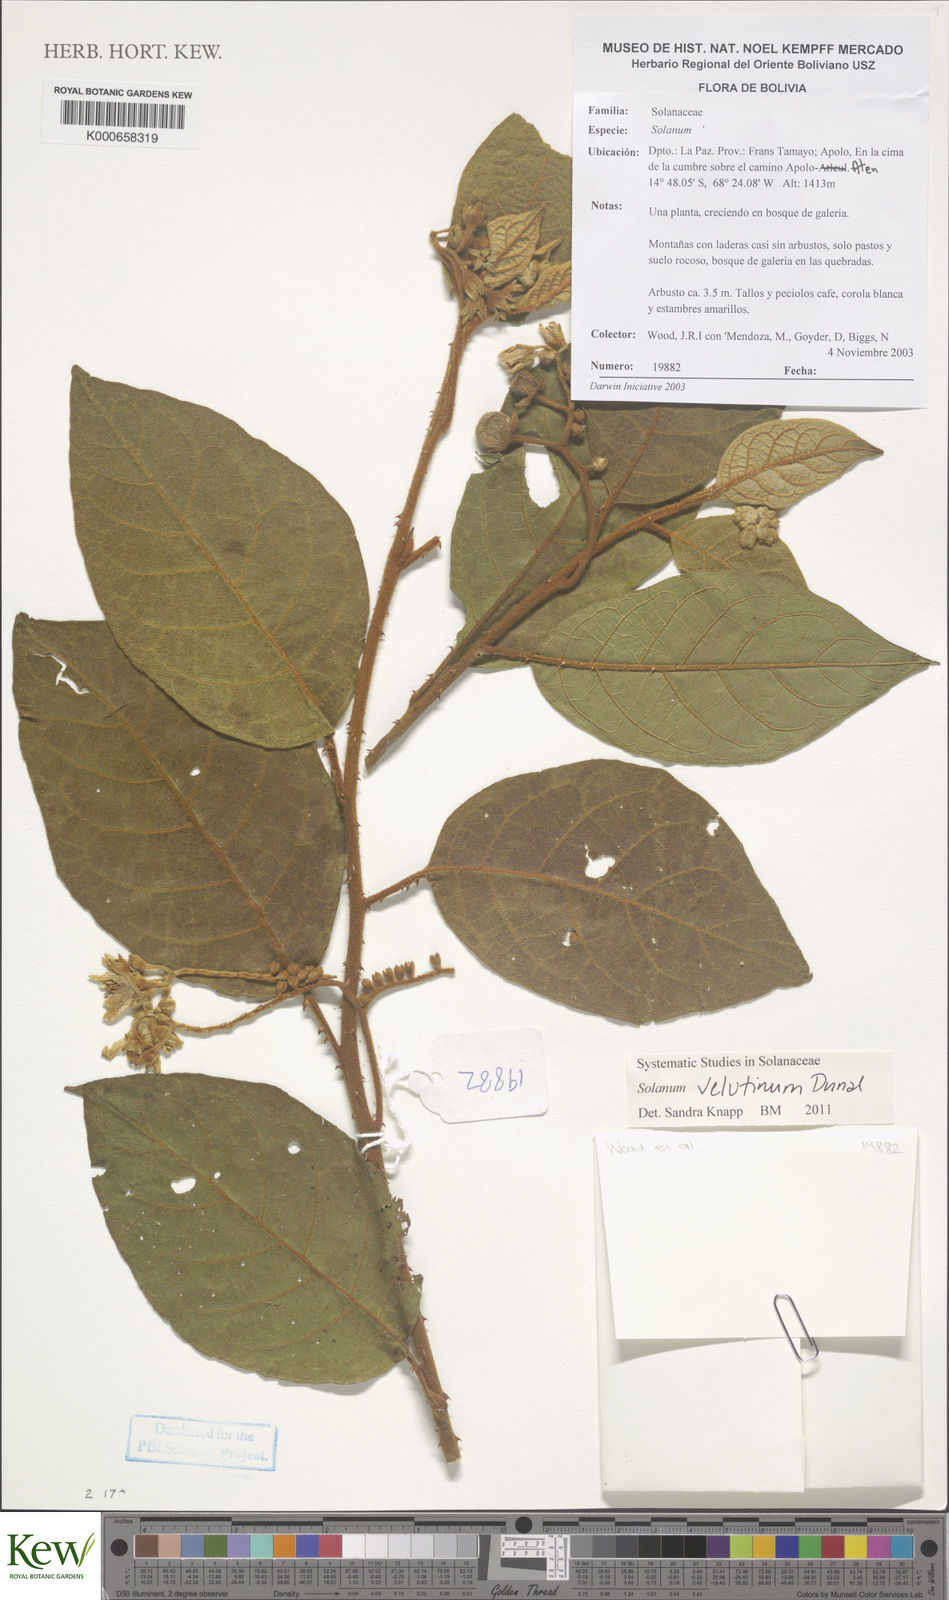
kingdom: Plantae
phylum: Tracheophyta
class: Magnoliopsida
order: Solanales
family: Solanaceae
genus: Solanum
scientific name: Solanum velutinum
